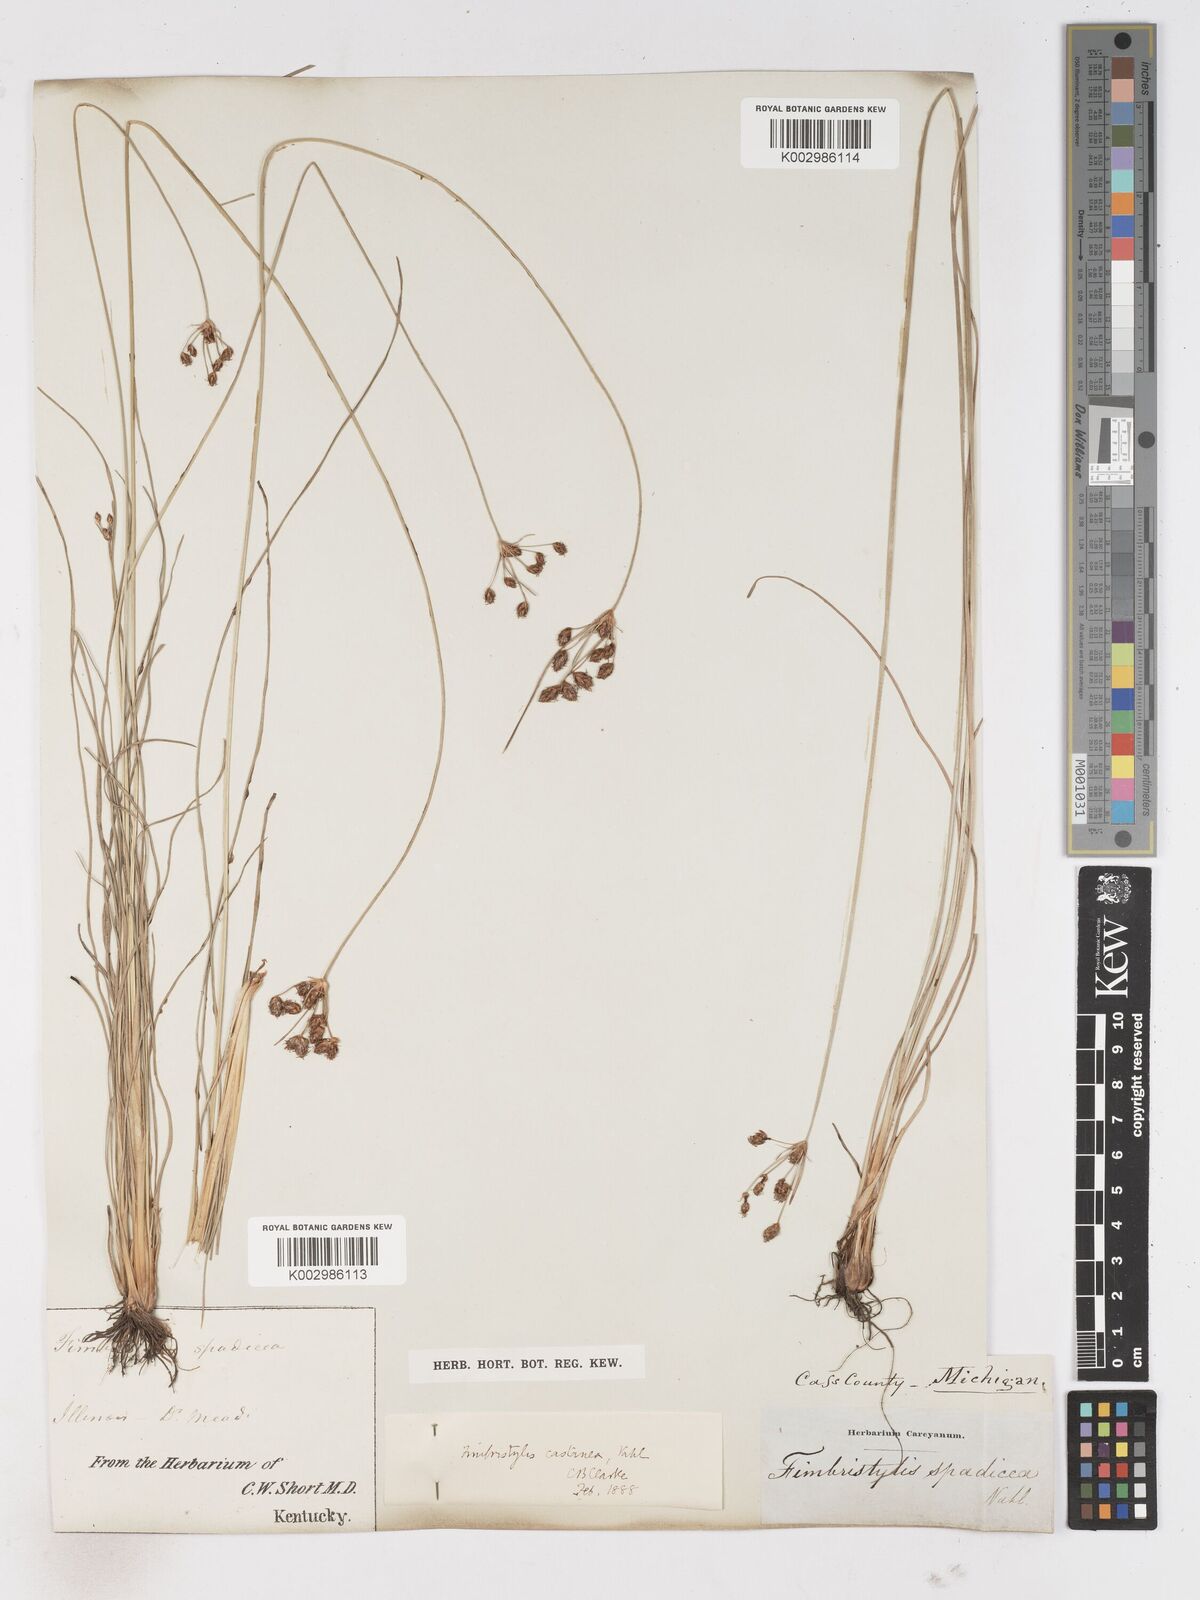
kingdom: Plantae
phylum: Tracheophyta
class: Liliopsida
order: Poales
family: Cyperaceae
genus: Fimbristylis
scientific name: Fimbristylis spadicea
